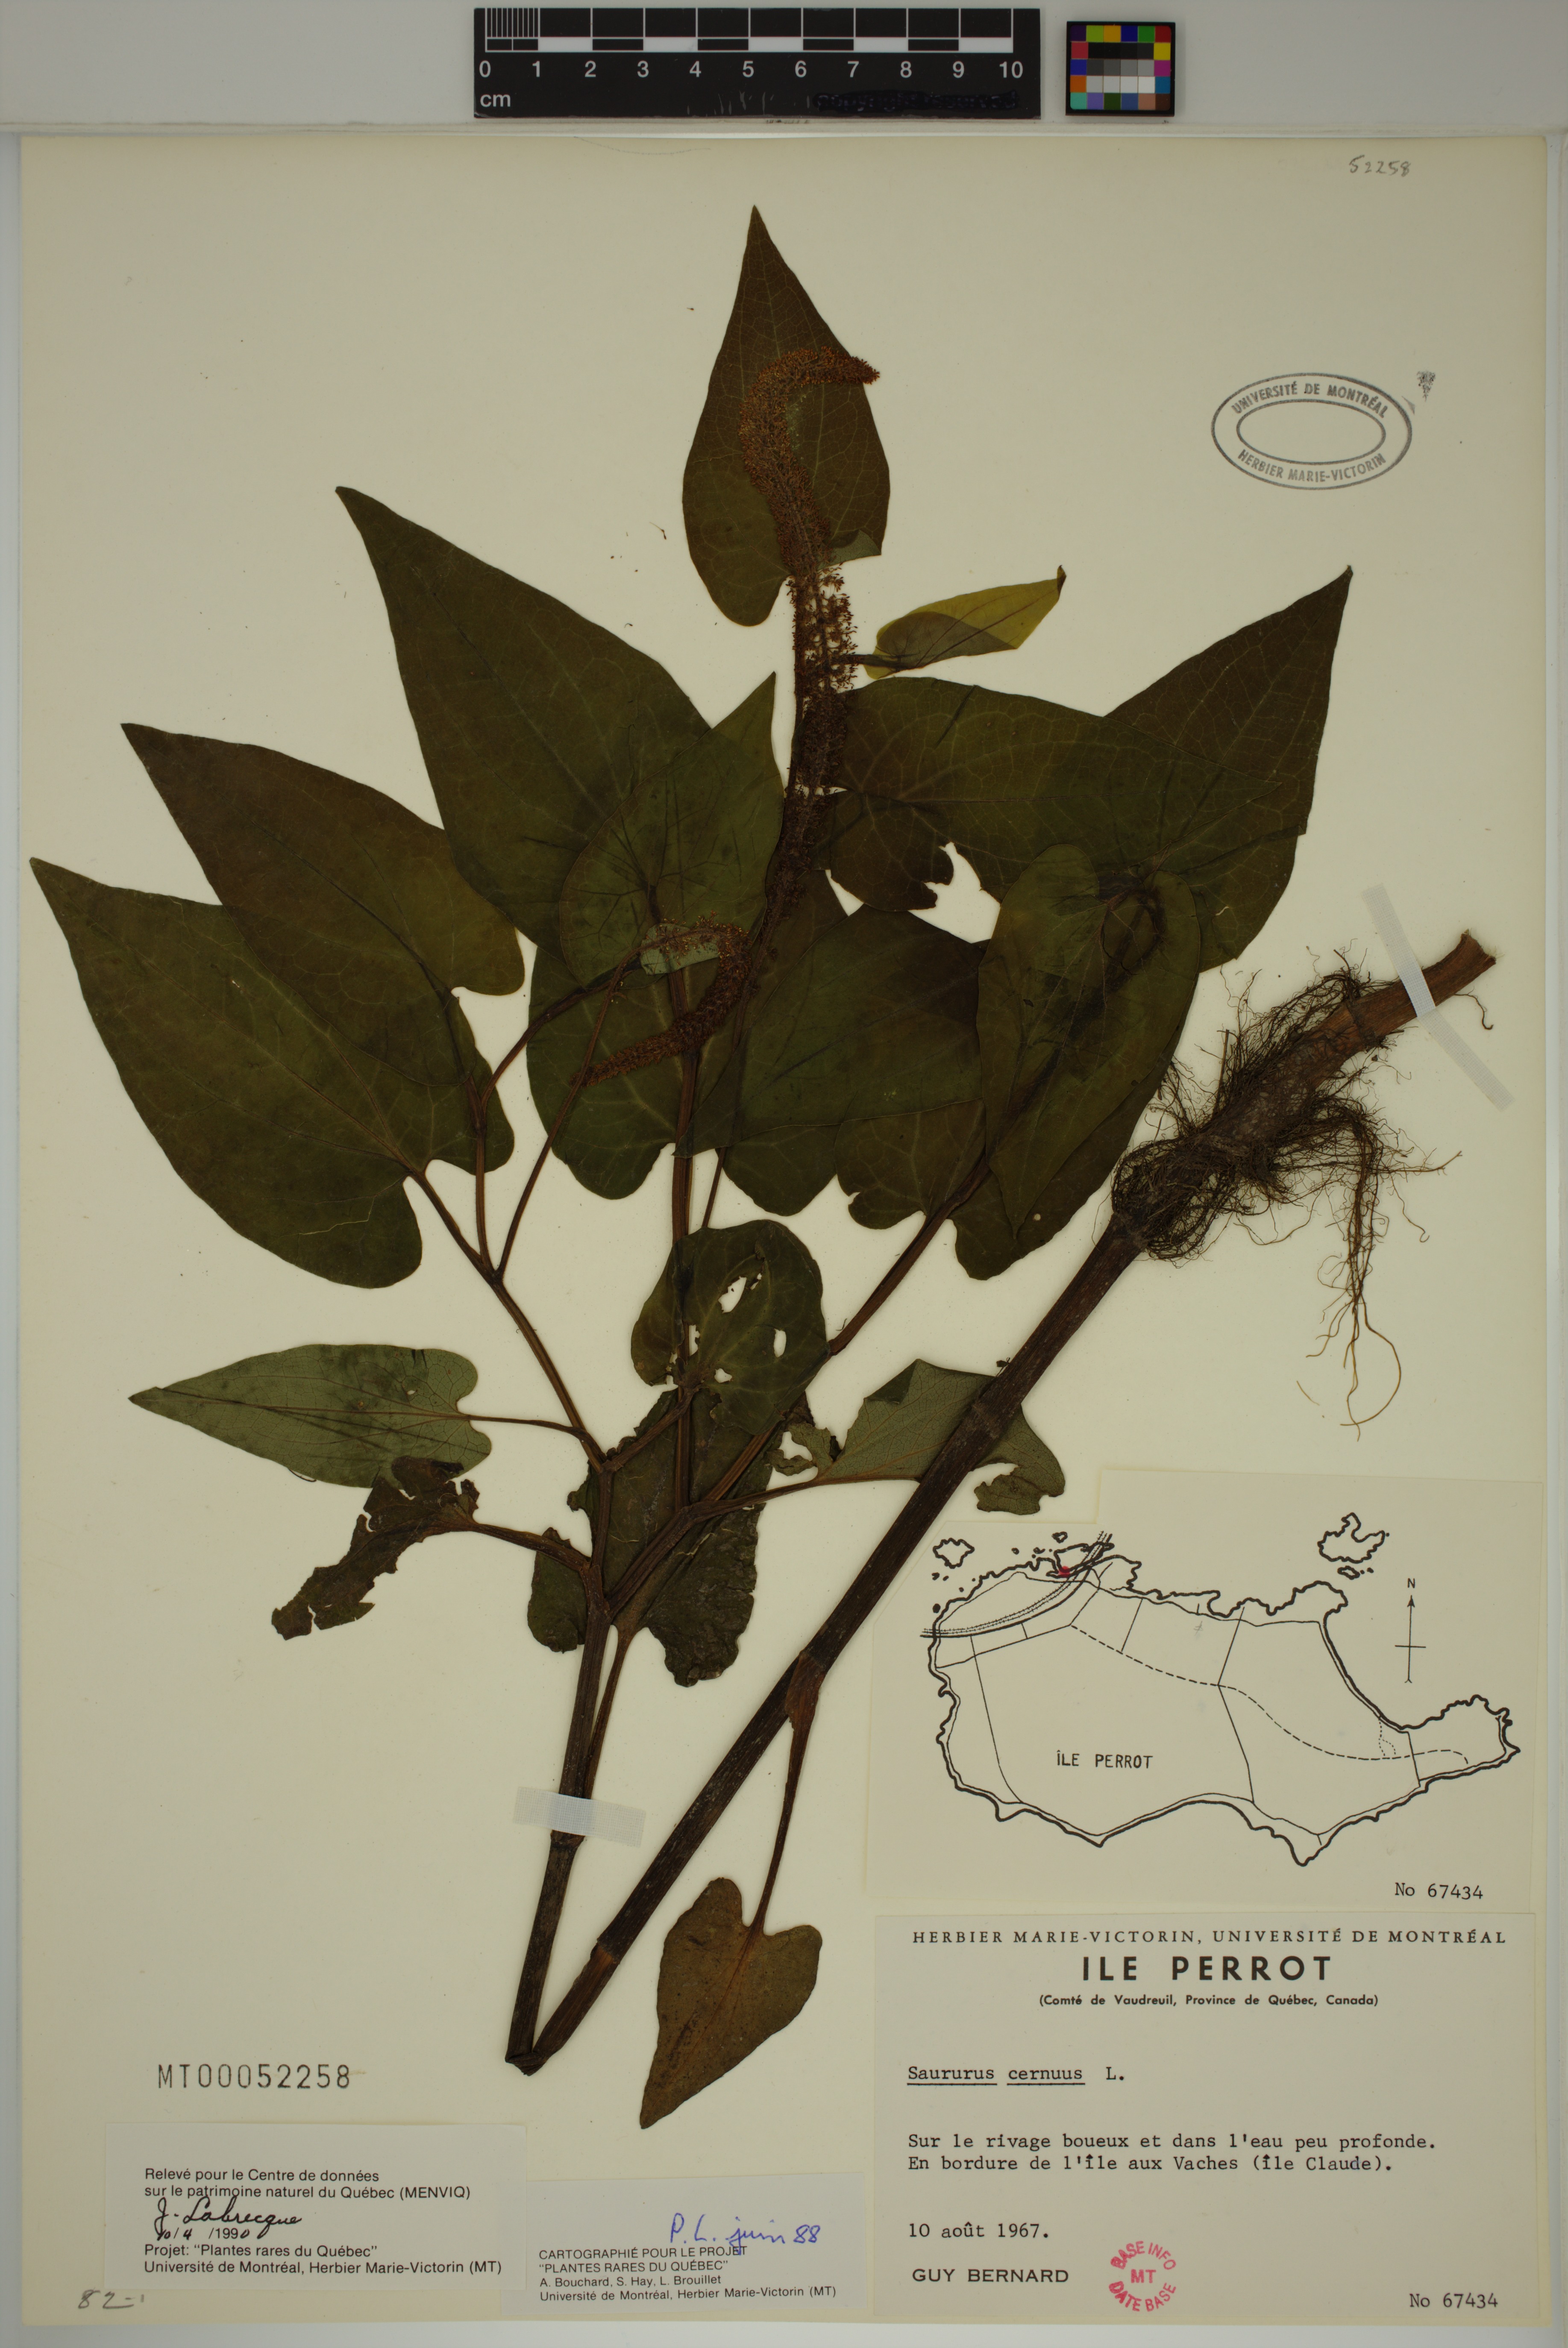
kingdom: Plantae
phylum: Tracheophyta
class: Magnoliopsida
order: Piperales
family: Saururaceae
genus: Saururus
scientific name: Saururus cernuus
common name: Lizard's-tail
